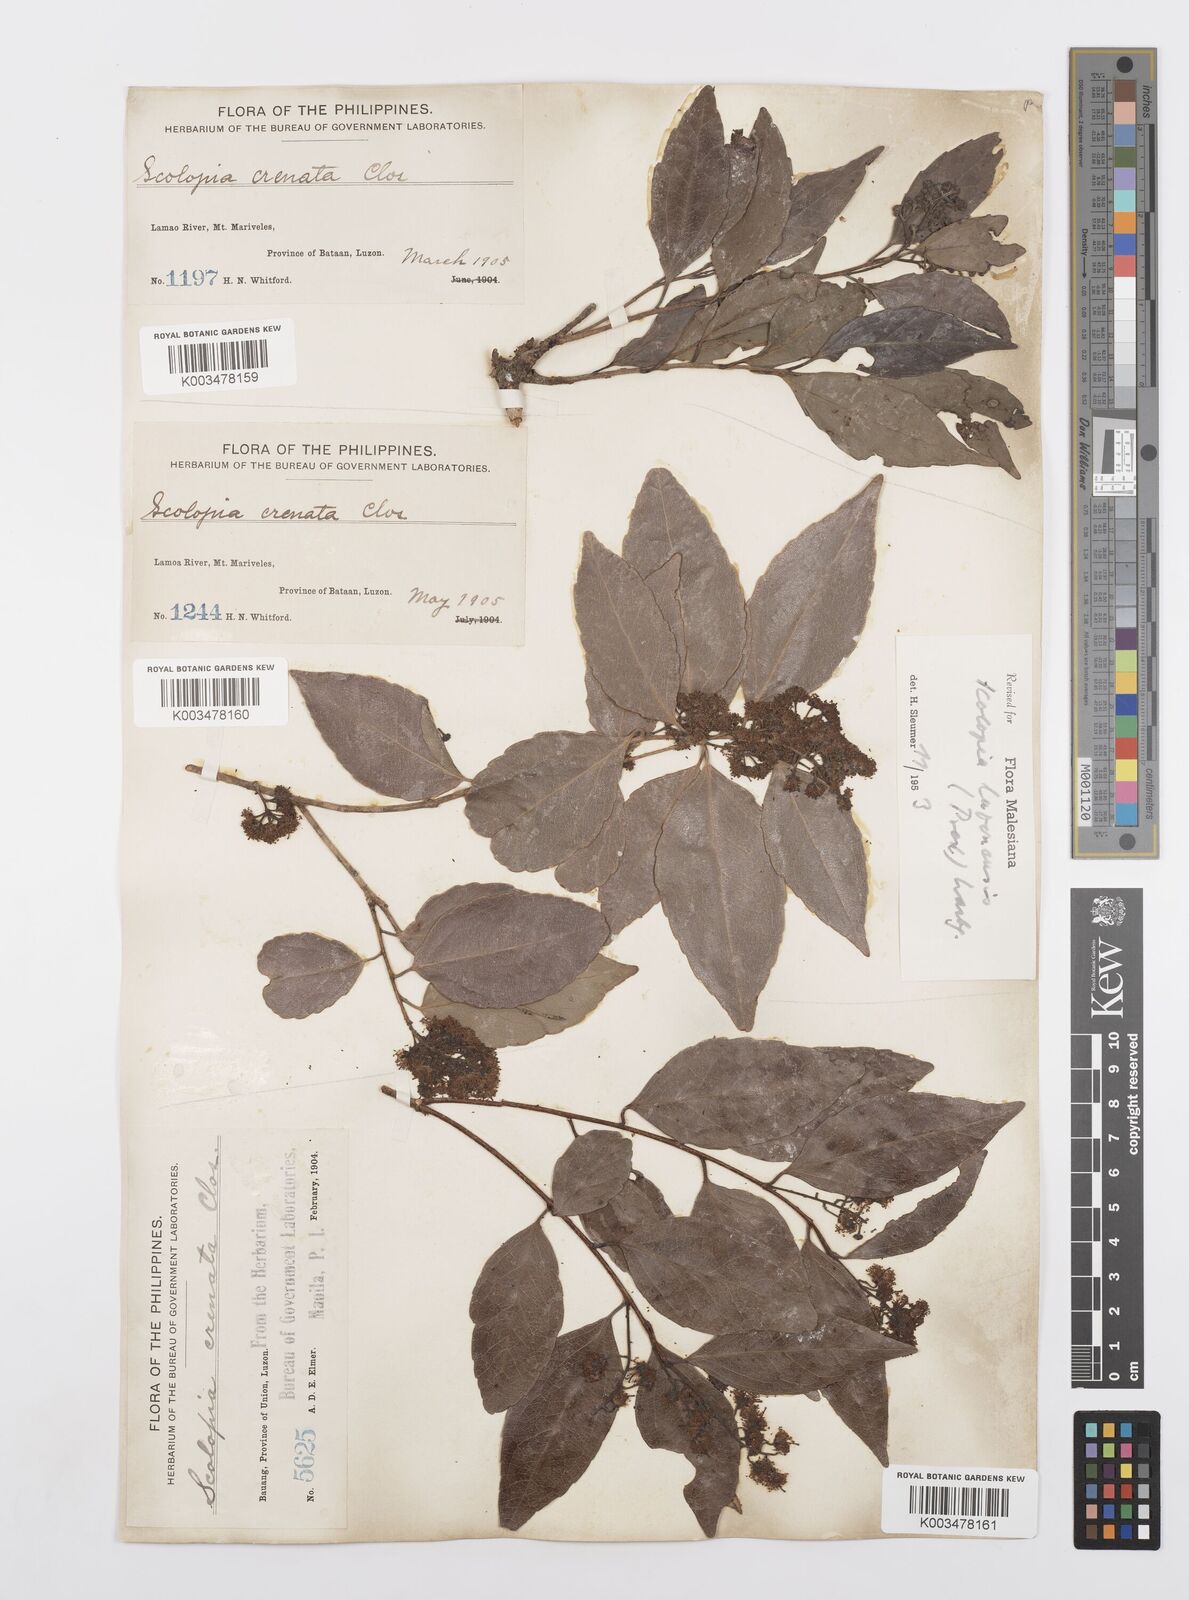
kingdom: Plantae
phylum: Tracheophyta
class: Magnoliopsida
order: Malpighiales
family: Salicaceae
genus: Scolopia
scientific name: Scolopia luzonensis
